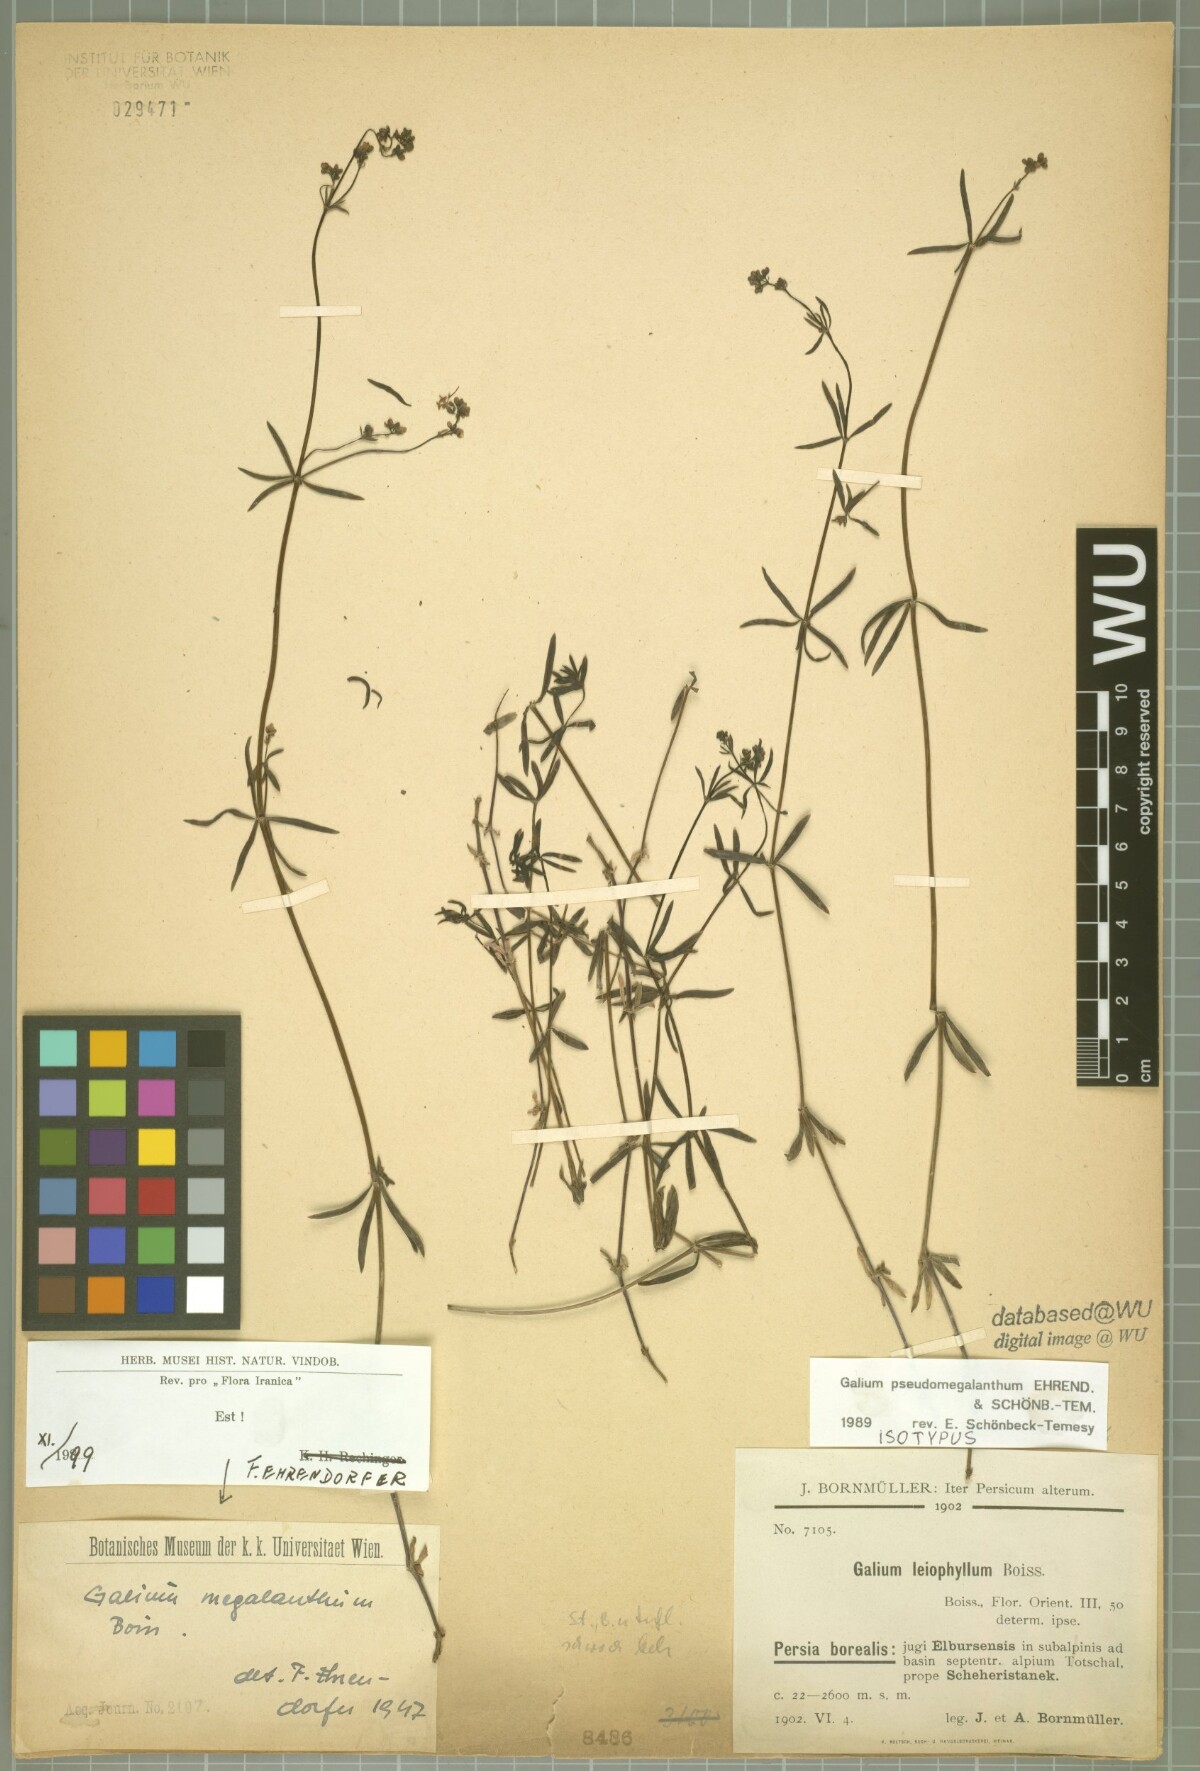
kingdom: Plantae
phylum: Tracheophyta
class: Magnoliopsida
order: Gentianales
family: Rubiaceae
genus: Galium
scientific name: Galium megalanthum
